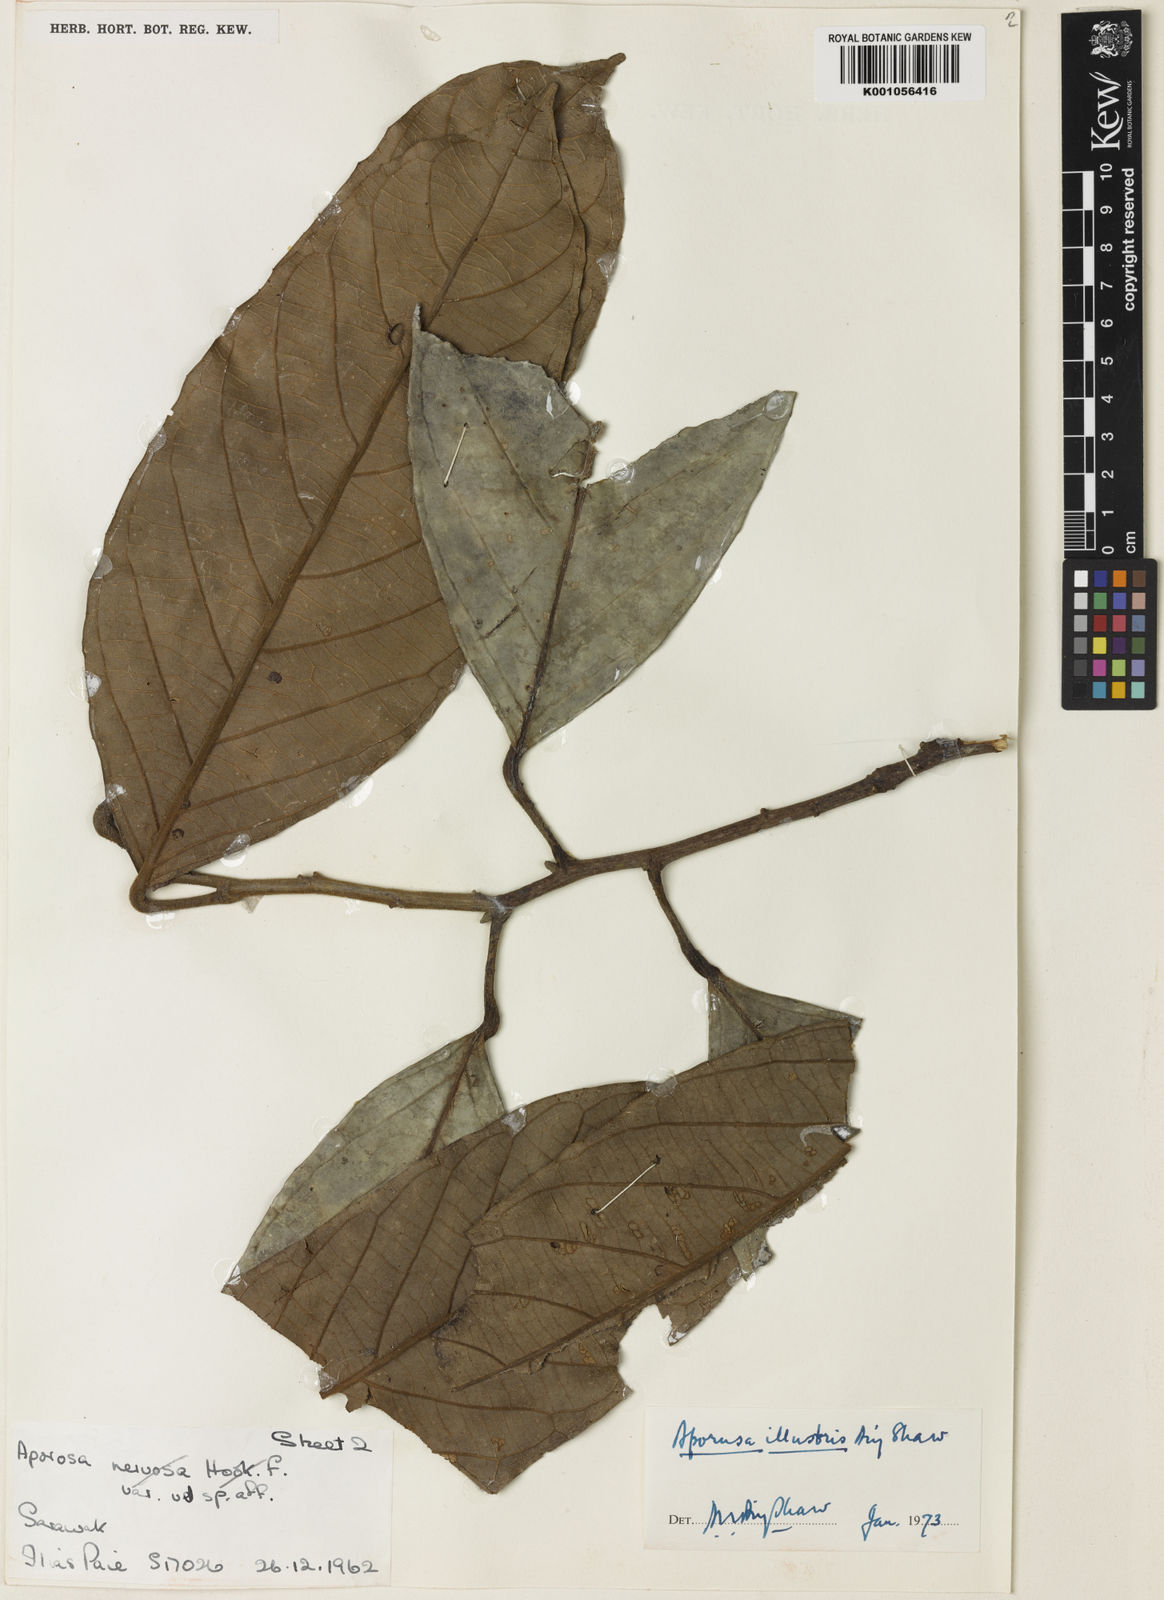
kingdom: Plantae
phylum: Tracheophyta
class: Magnoliopsida
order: Malpighiales
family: Phyllanthaceae
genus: Aporosa
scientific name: Aporosa illustris
